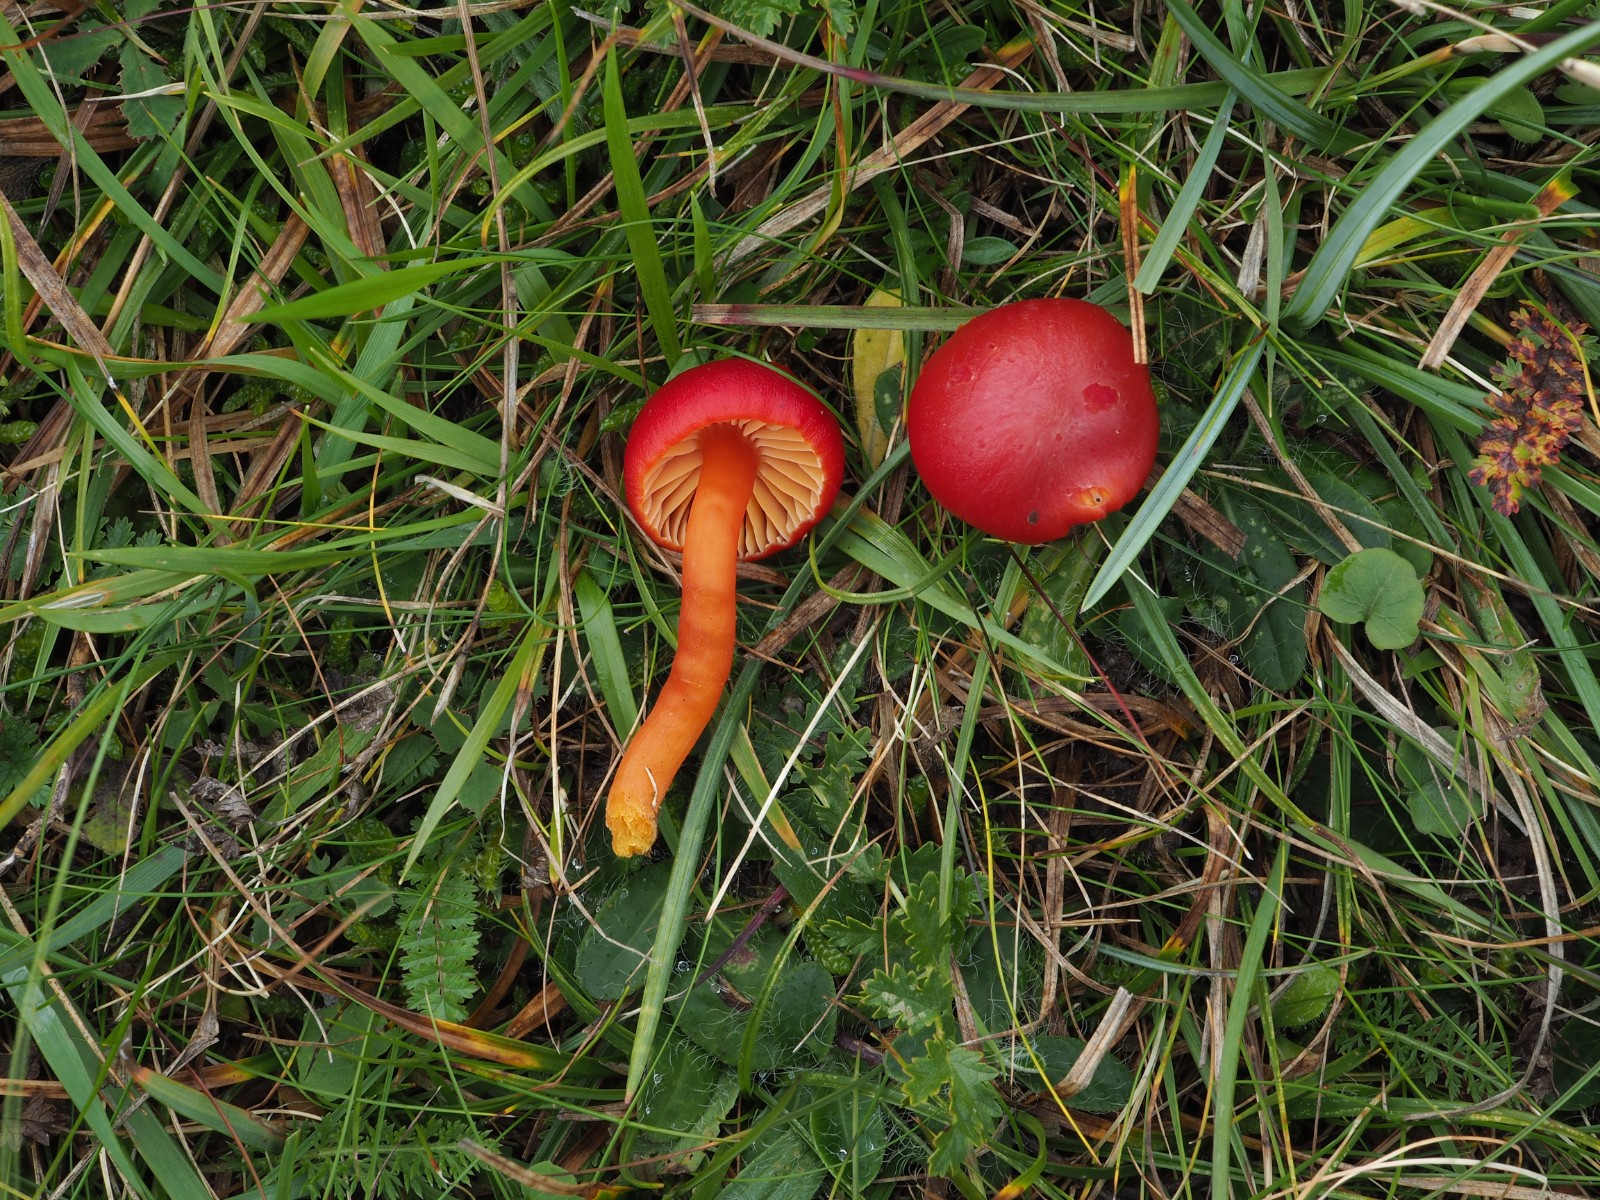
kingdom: Fungi
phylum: Basidiomycota
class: Agaricomycetes
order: Agaricales
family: Hygrophoraceae
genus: Hygrocybe
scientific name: Hygrocybe coccinea
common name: cinnober-vokshat
